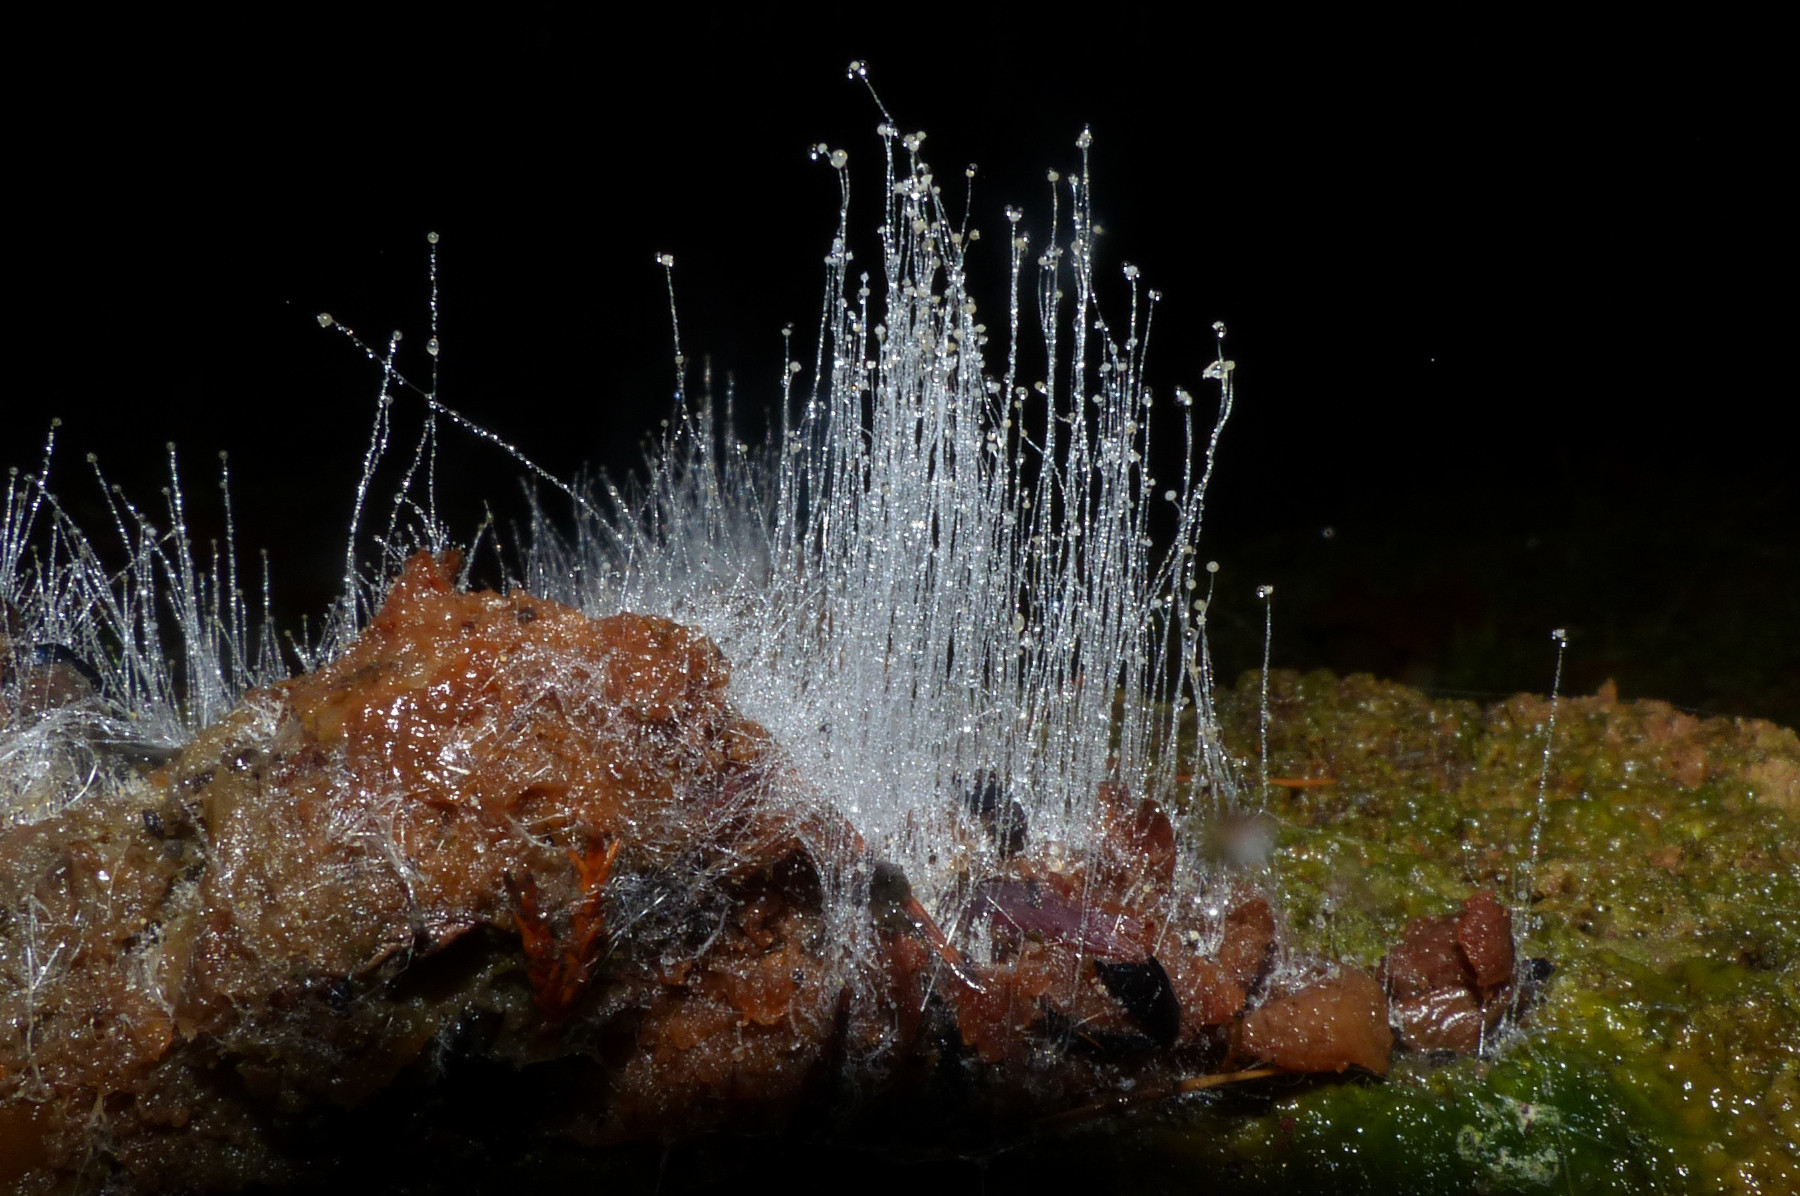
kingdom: Fungi
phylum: Mucoromycota
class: Mucoromycetes
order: Mucorales
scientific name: Mucorales
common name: mugordenen
